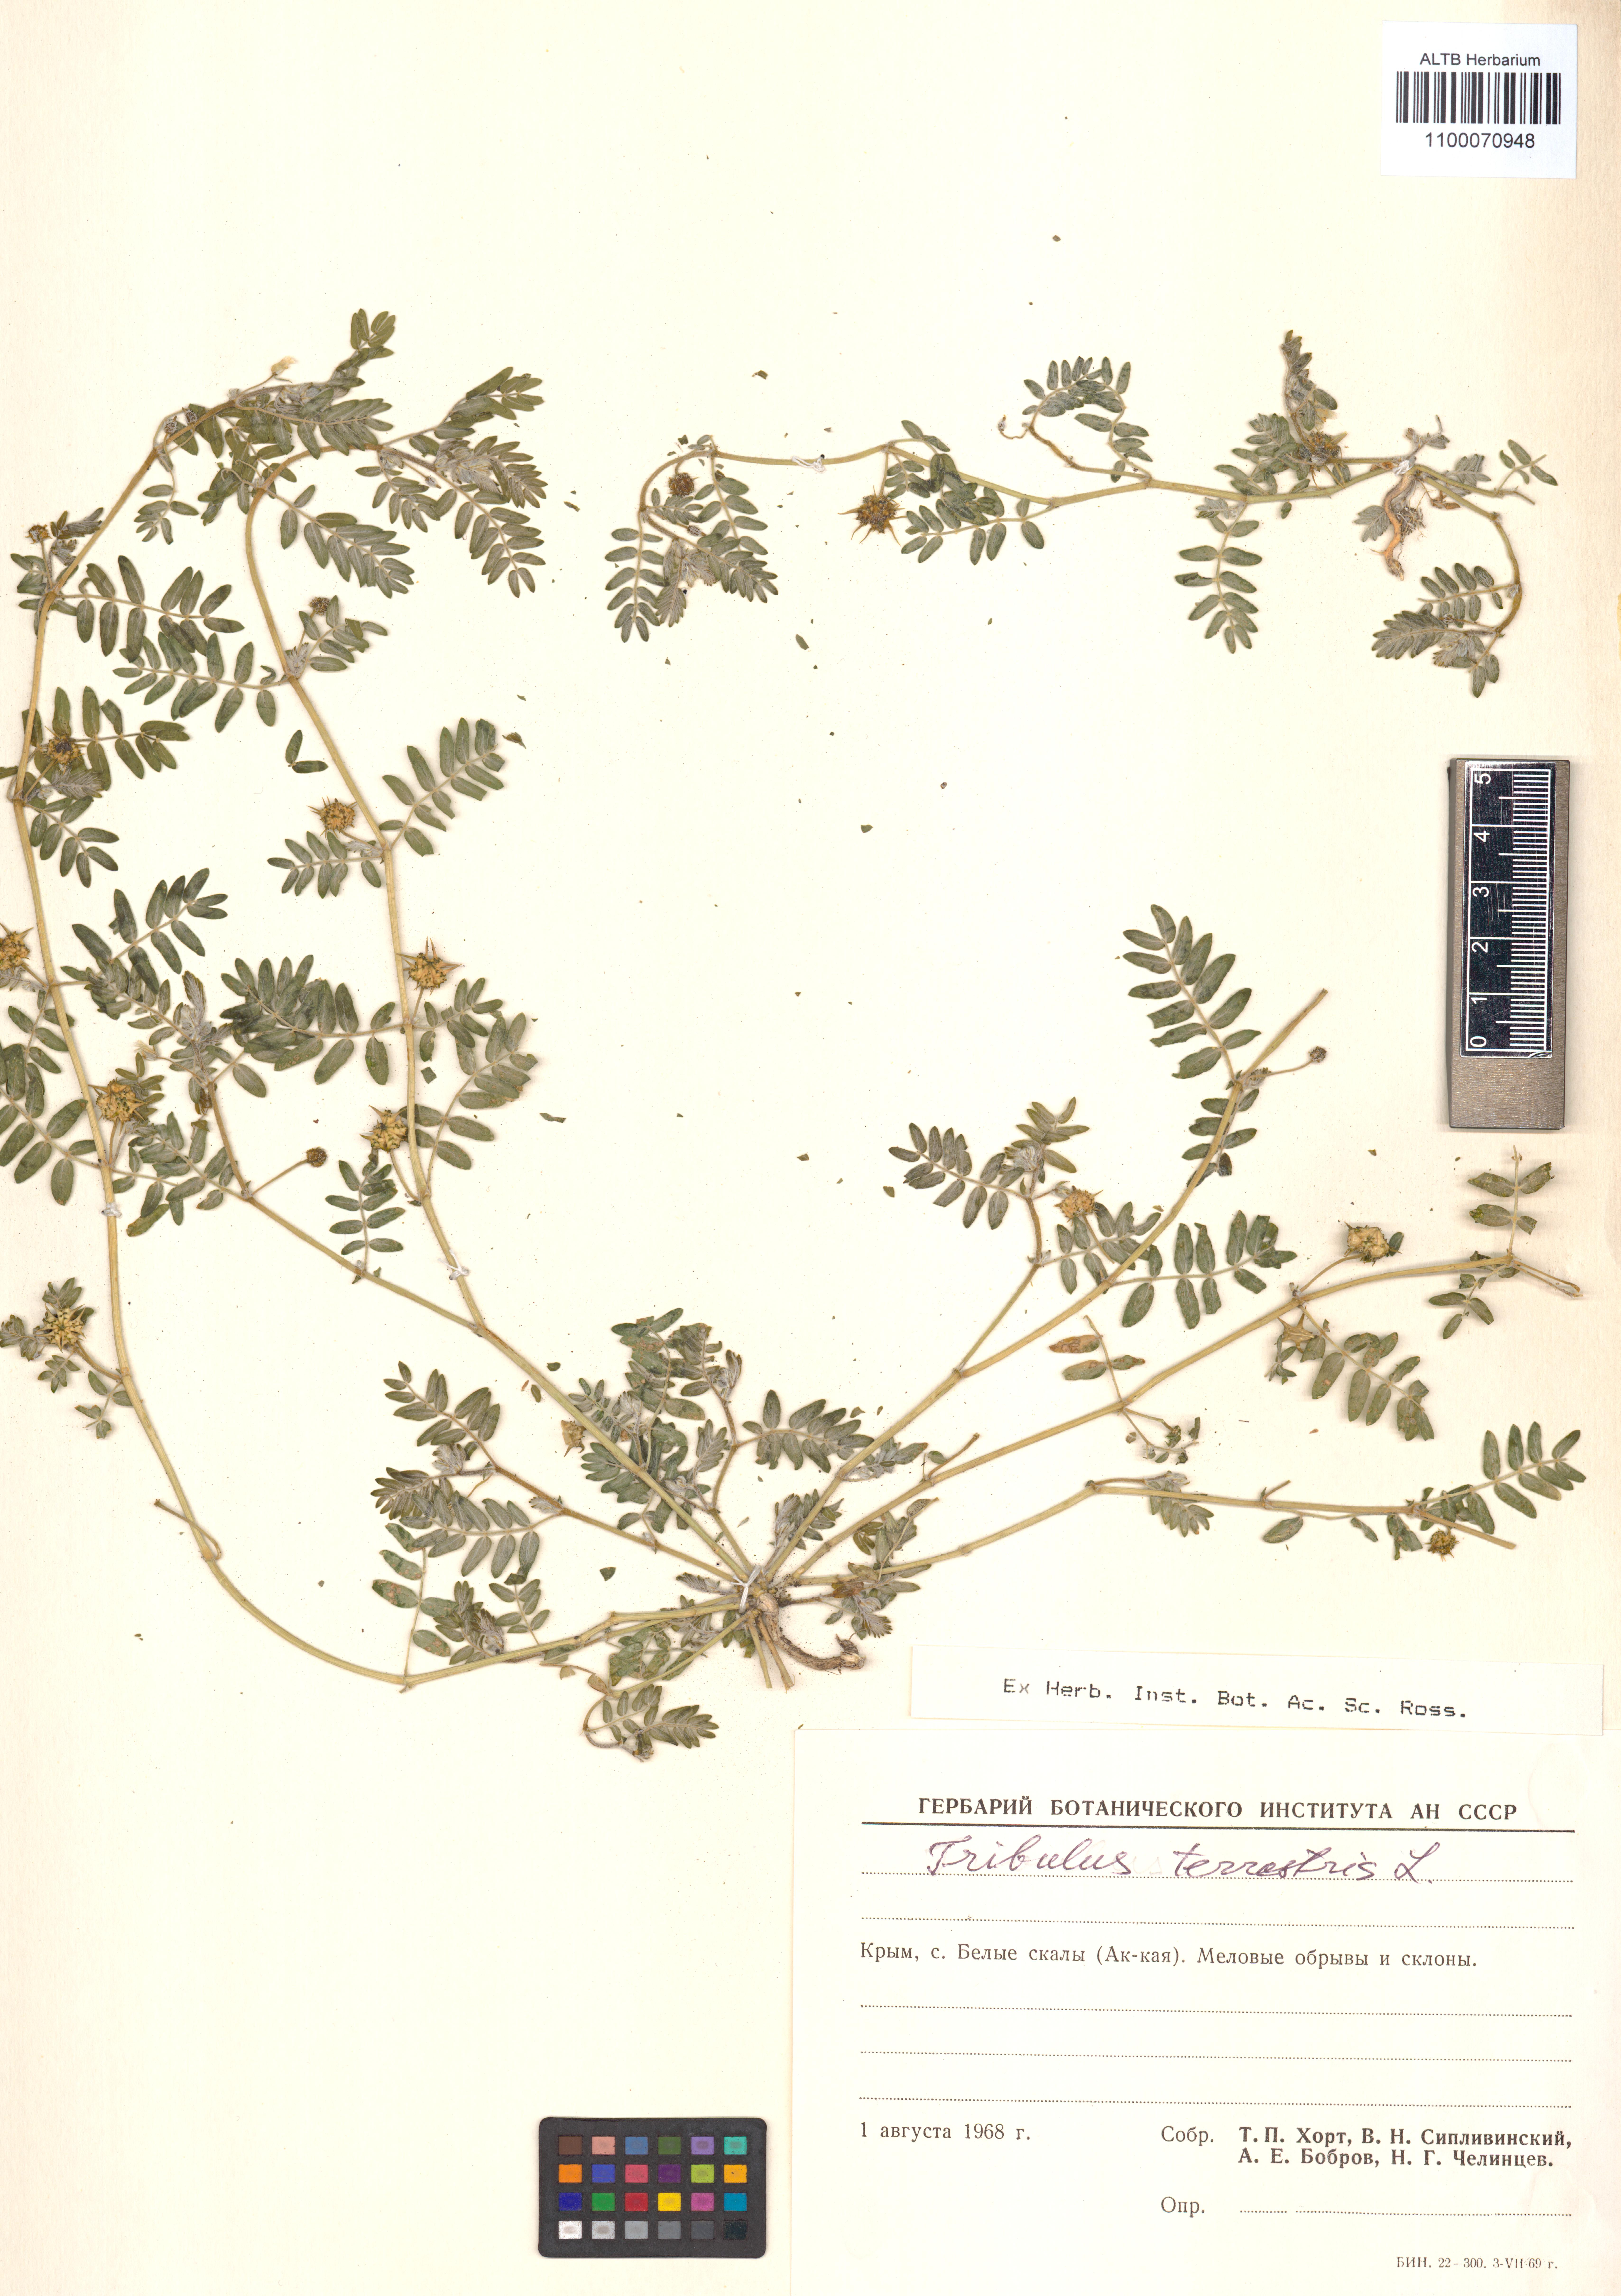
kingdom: Plantae
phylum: Tracheophyta
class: Magnoliopsida
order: Zygophyllales
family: Zygophyllaceae
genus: Tribulus
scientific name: Tribulus terrestris
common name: Puncturevine
